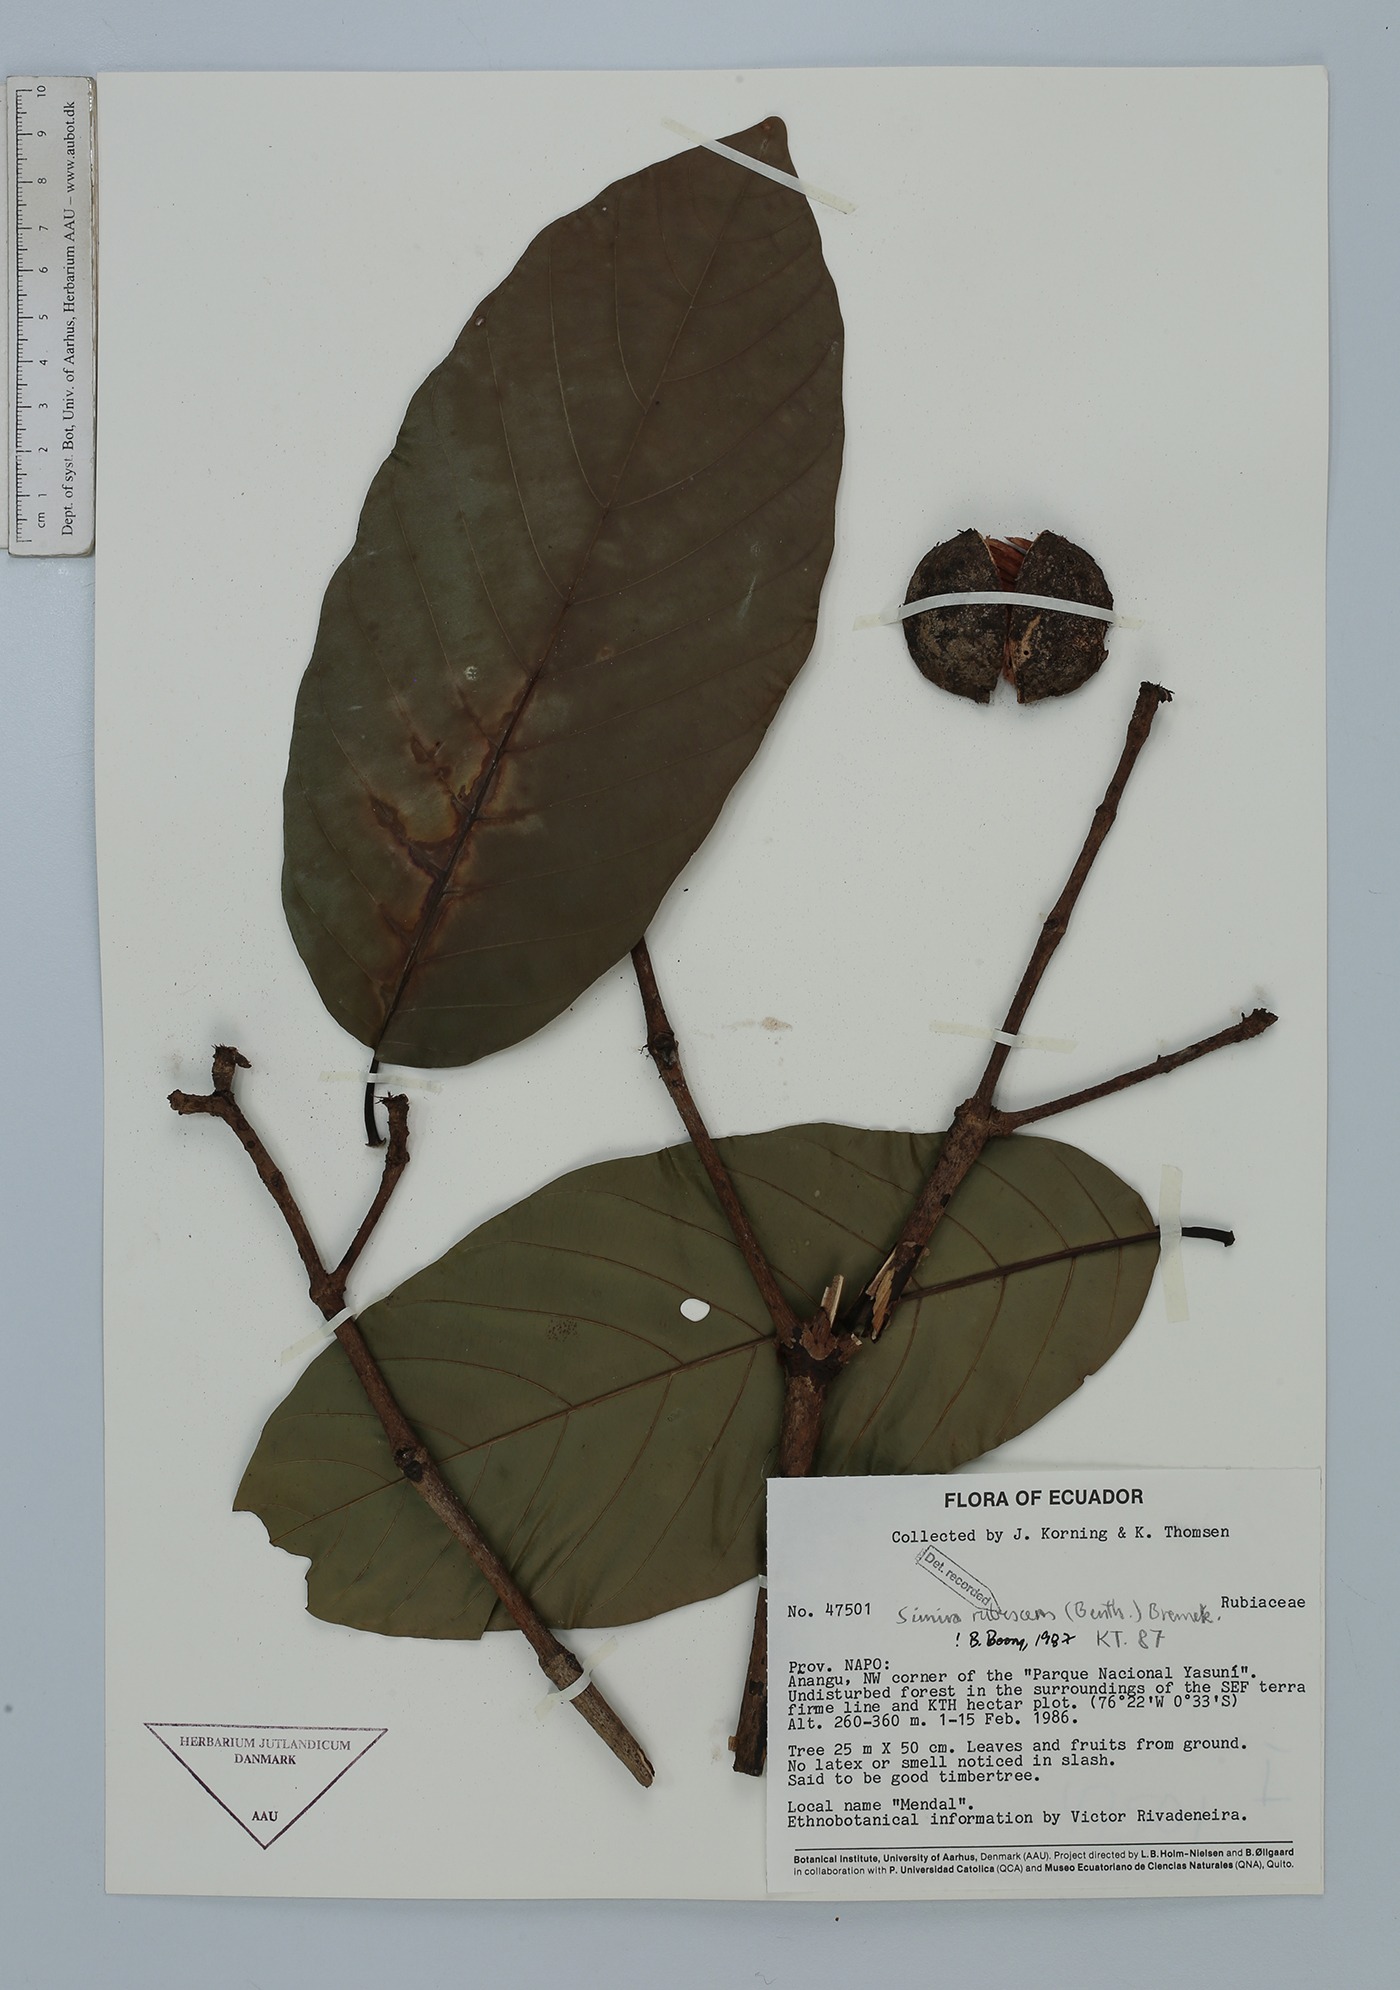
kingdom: Plantae
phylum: Tracheophyta
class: Magnoliopsida
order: Gentianales
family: Rubiaceae
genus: Simira
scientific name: Simira rubescens
